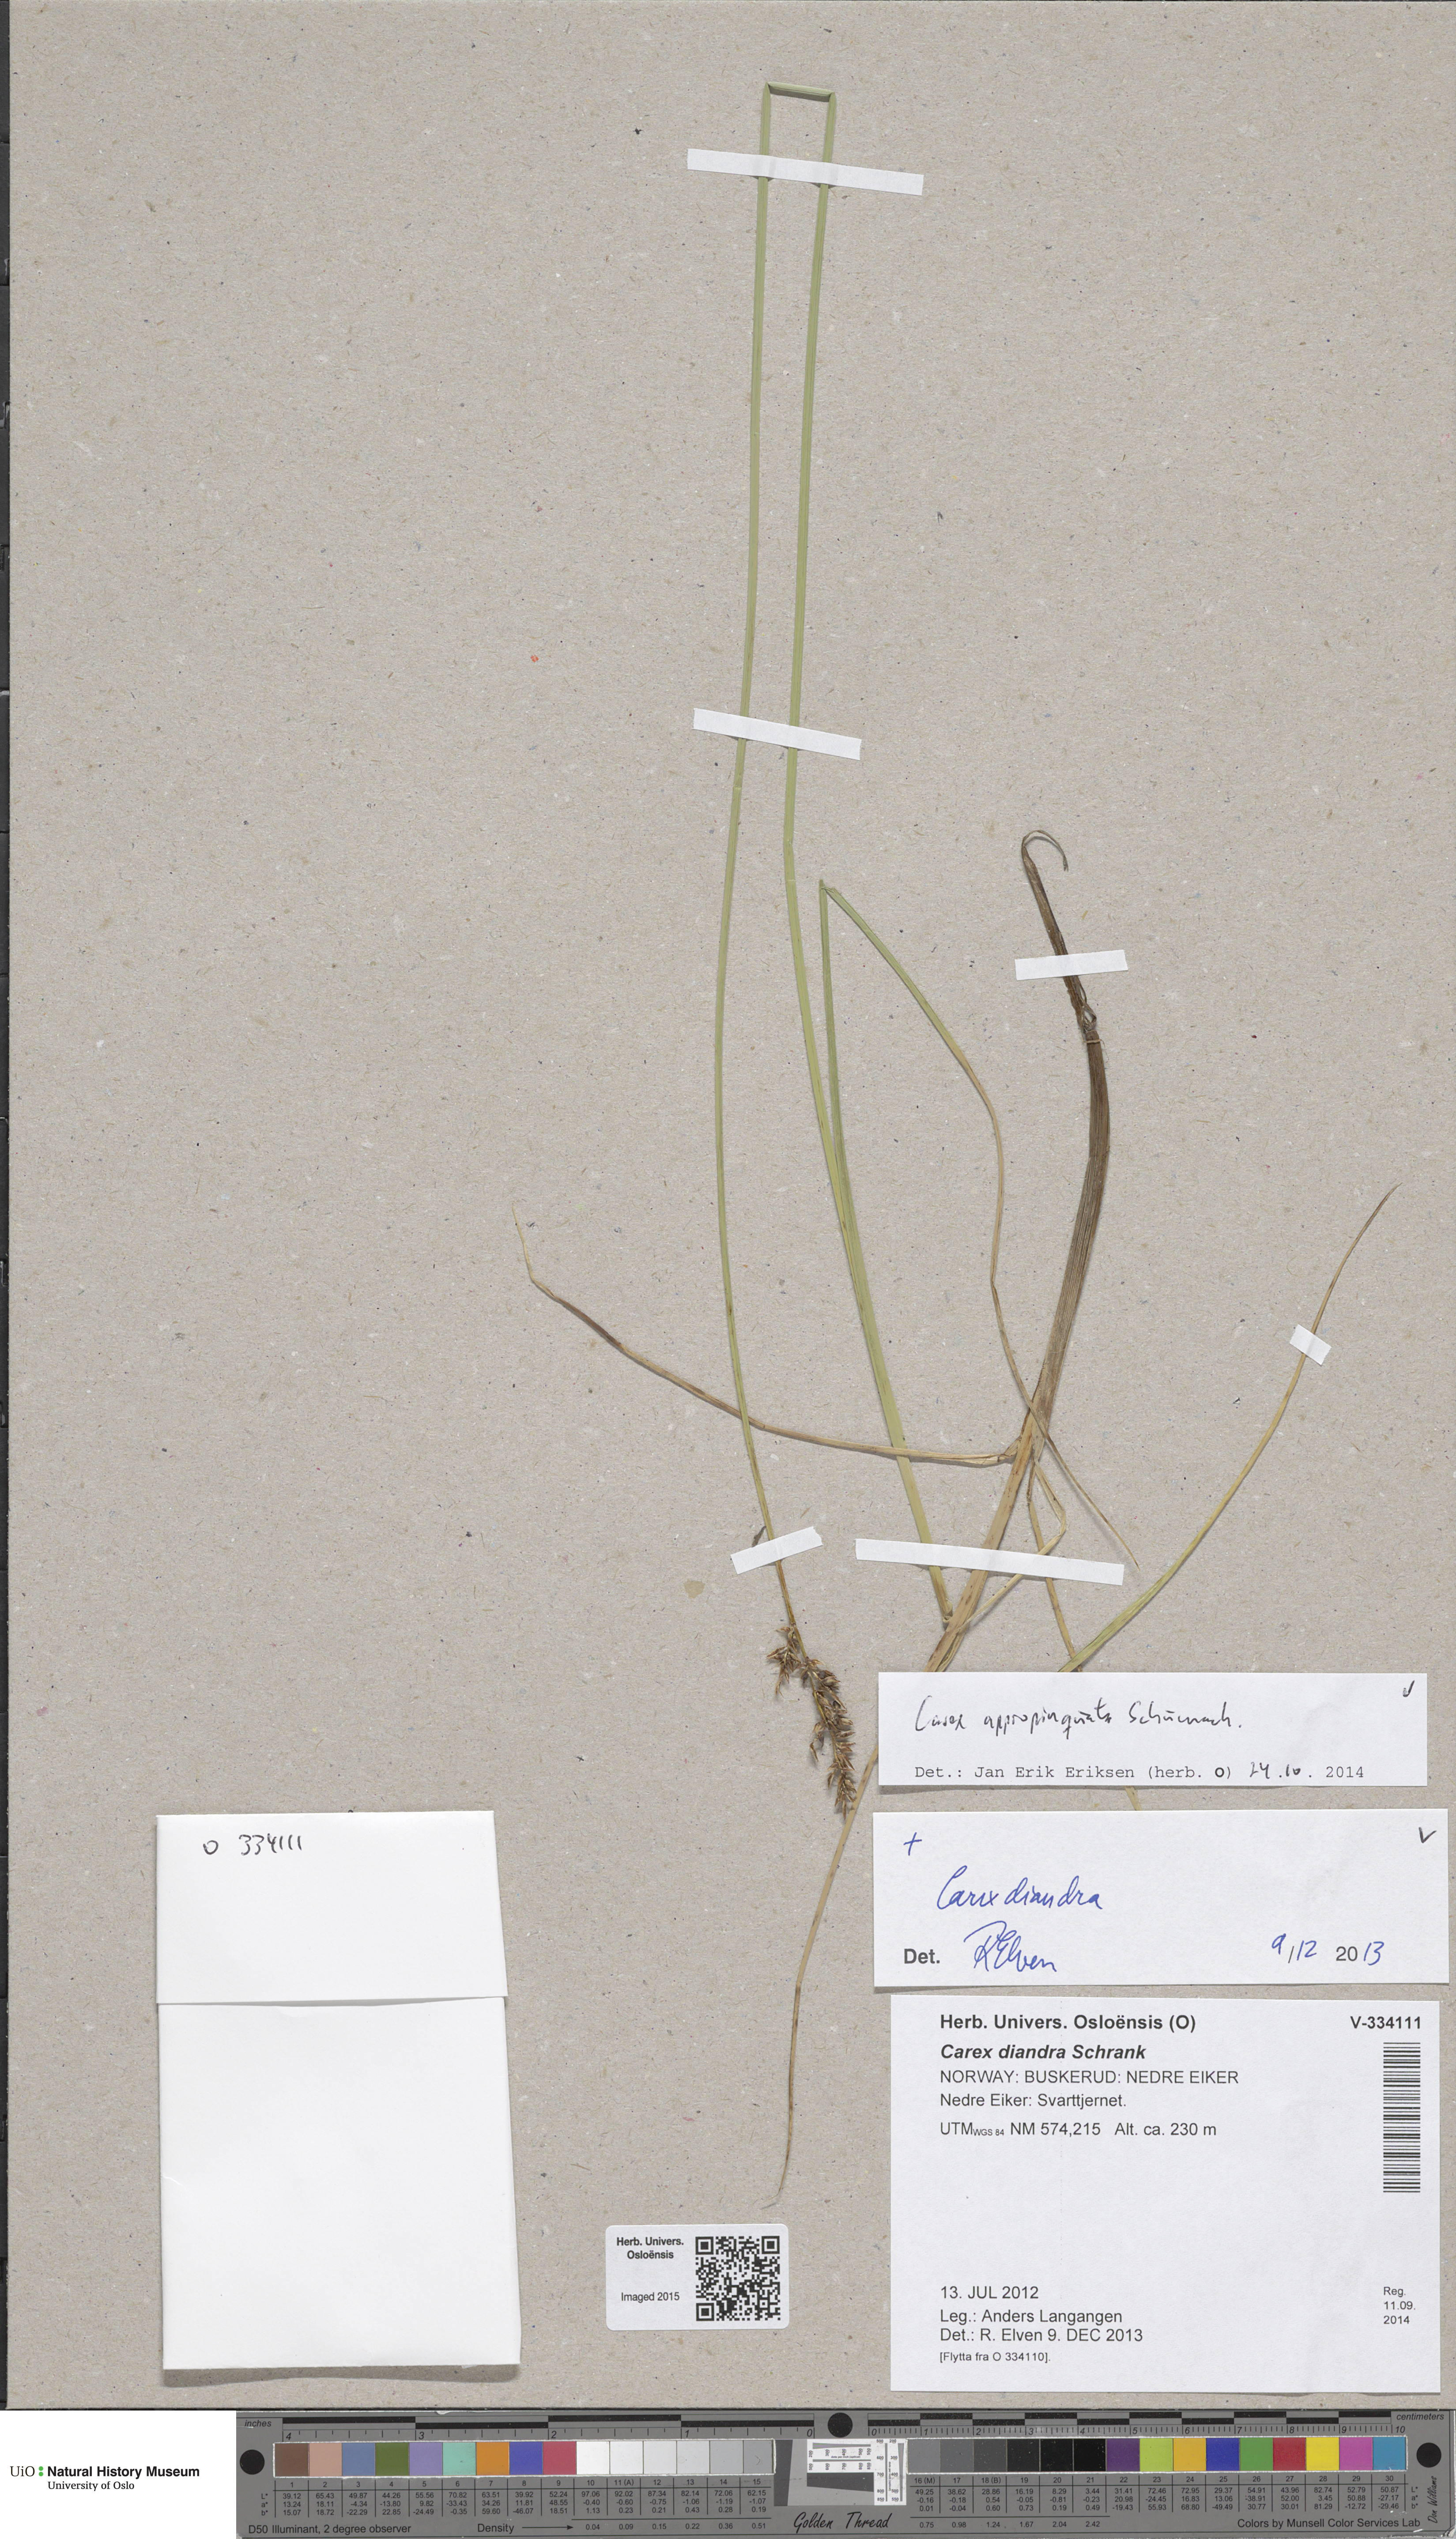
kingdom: Plantae
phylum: Tracheophyta
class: Liliopsida
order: Poales
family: Cyperaceae
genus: Carex
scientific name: Carex appropinquata
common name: Fibrous tussock-sedge
